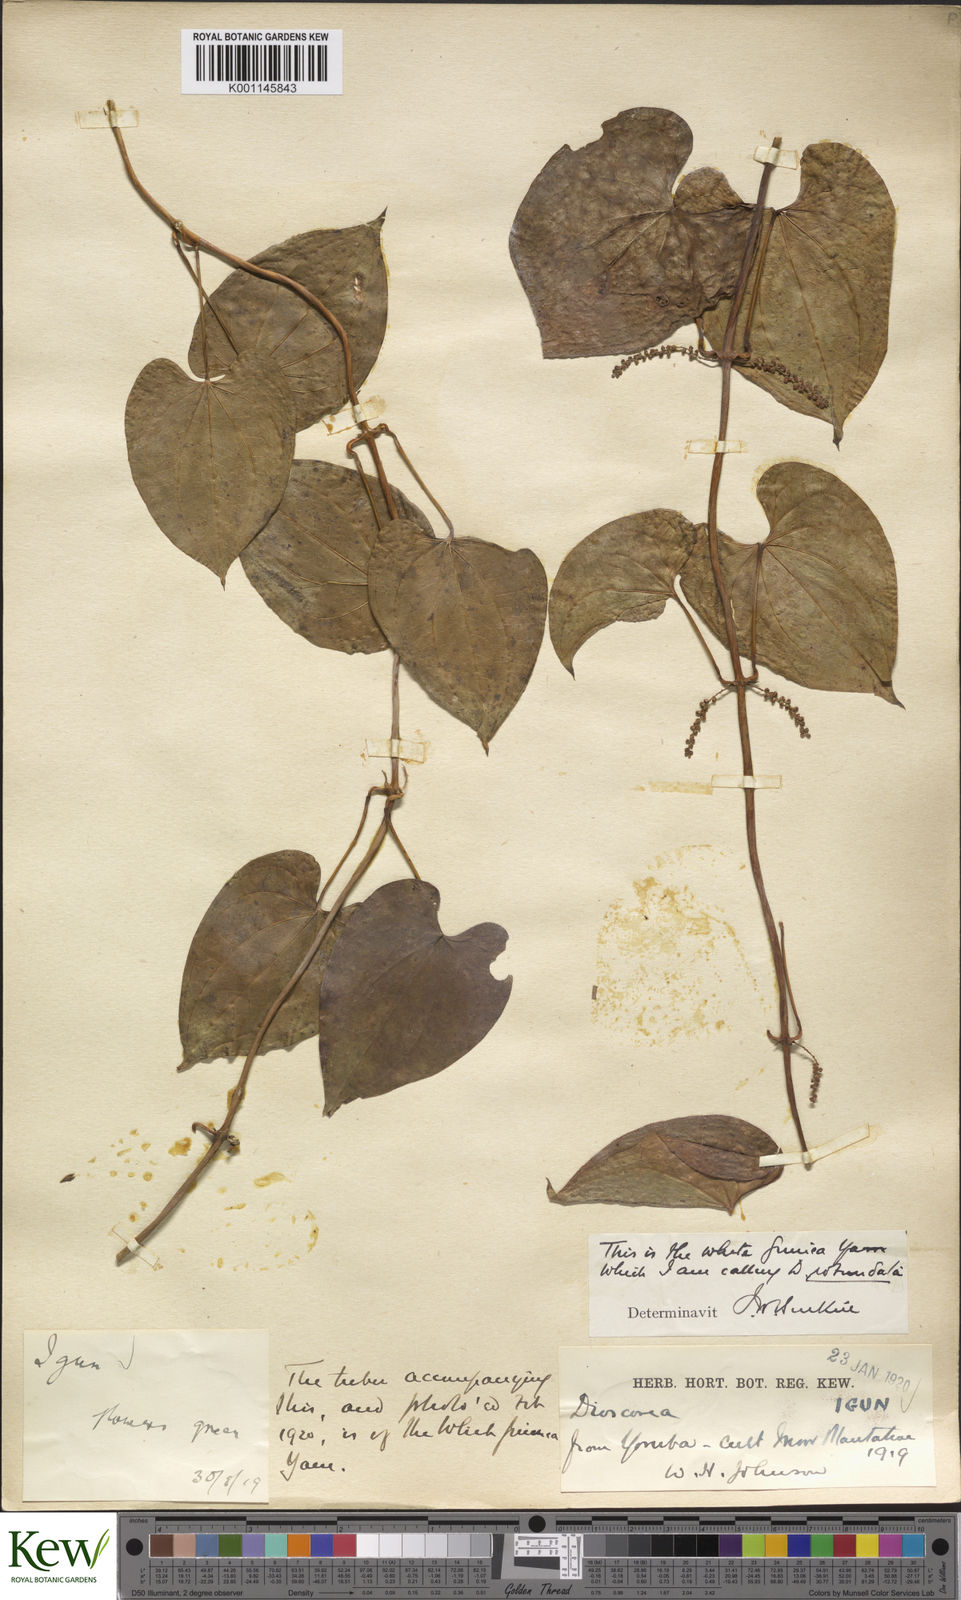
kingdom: Plantae
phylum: Tracheophyta
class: Liliopsida
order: Dioscoreales
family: Dioscoreaceae
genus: Dioscorea
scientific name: Dioscorea cayenensis
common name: Attoto yam
